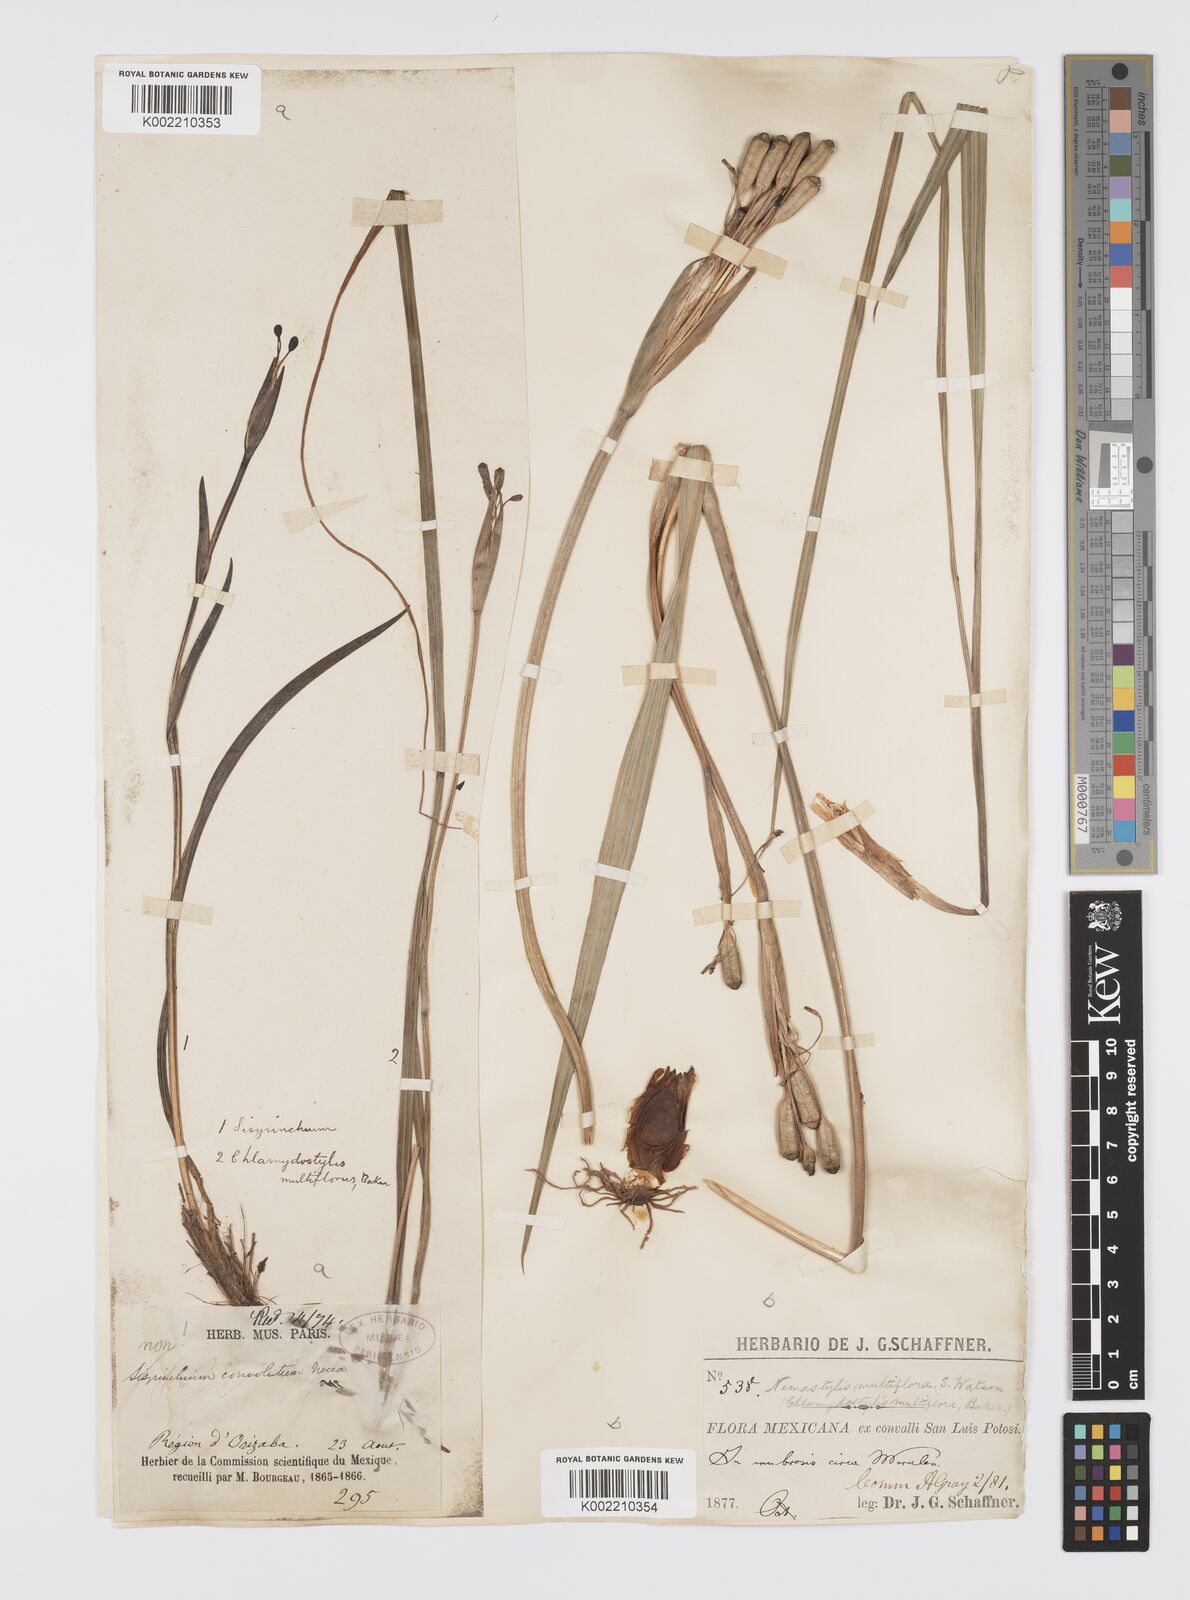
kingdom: Plantae
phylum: Tracheophyta
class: Liliopsida
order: Asparagales
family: Iridaceae
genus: Tigridia
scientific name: Tigridia multiflora
